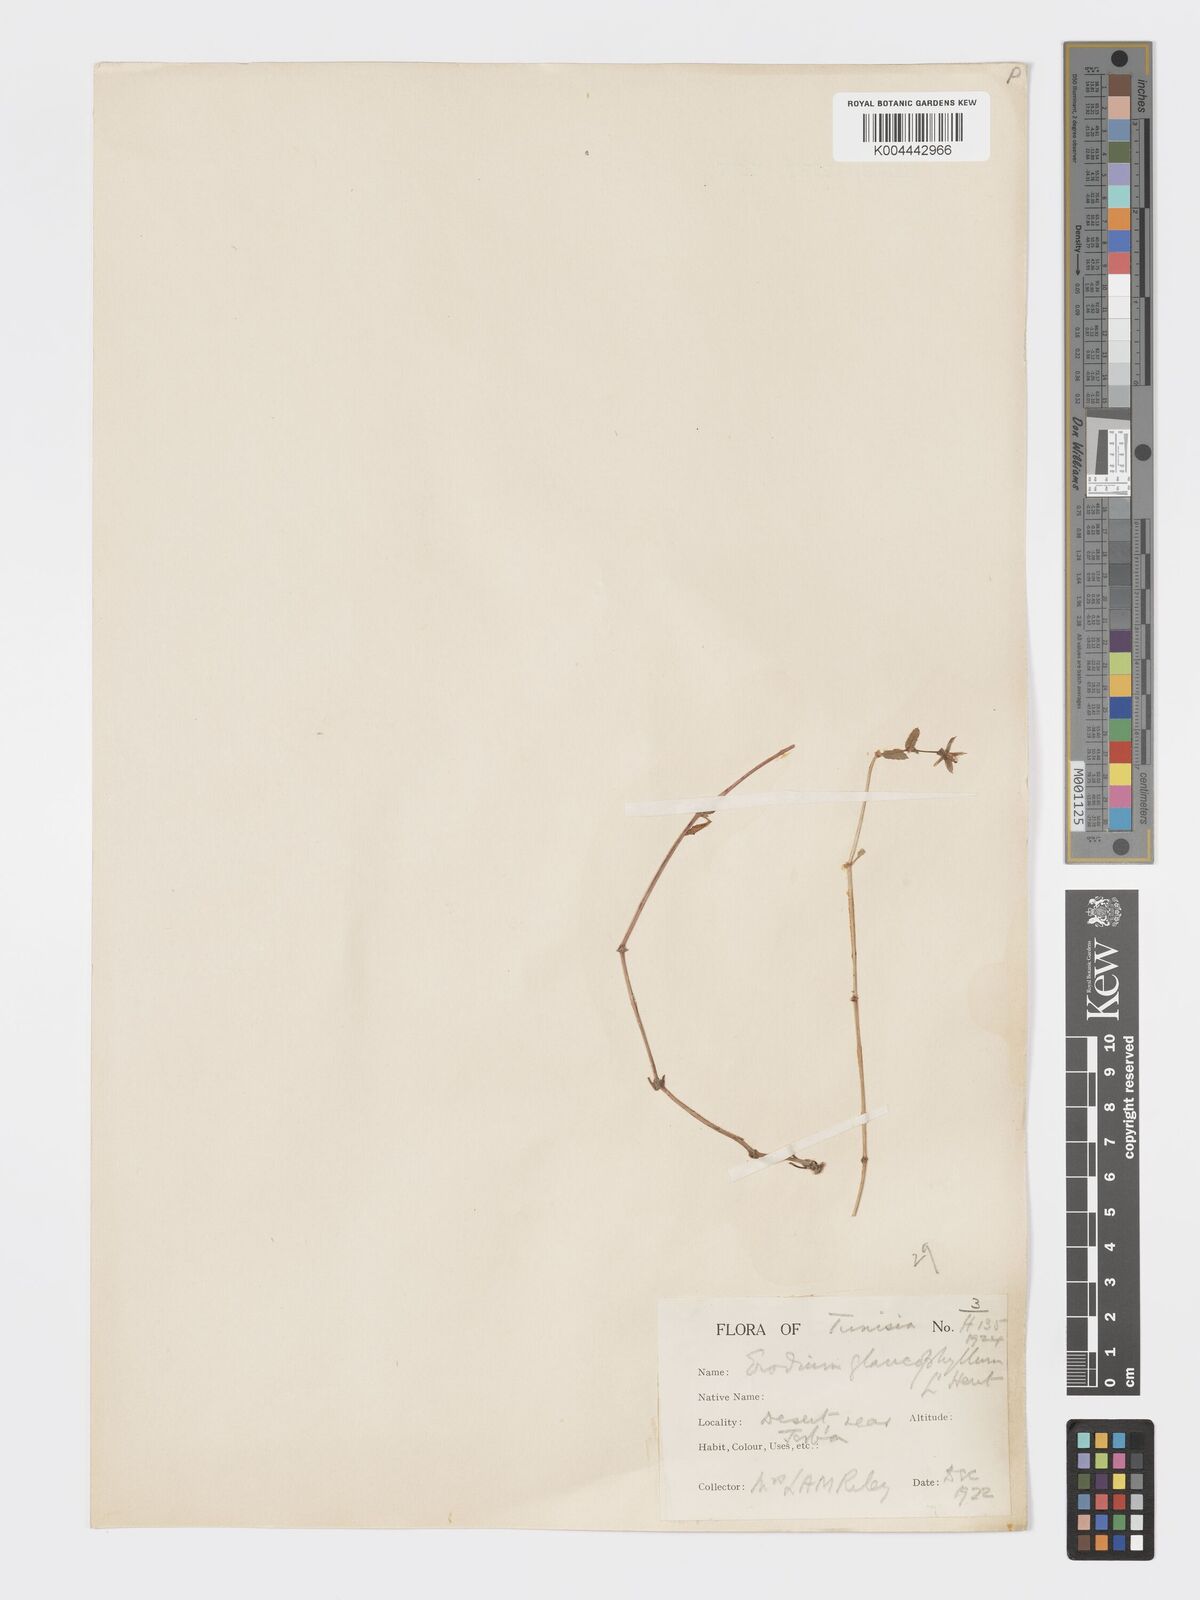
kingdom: Plantae
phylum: Tracheophyta
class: Magnoliopsida
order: Geraniales
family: Geraniaceae
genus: Erodium
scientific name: Erodium glaucophyllum
